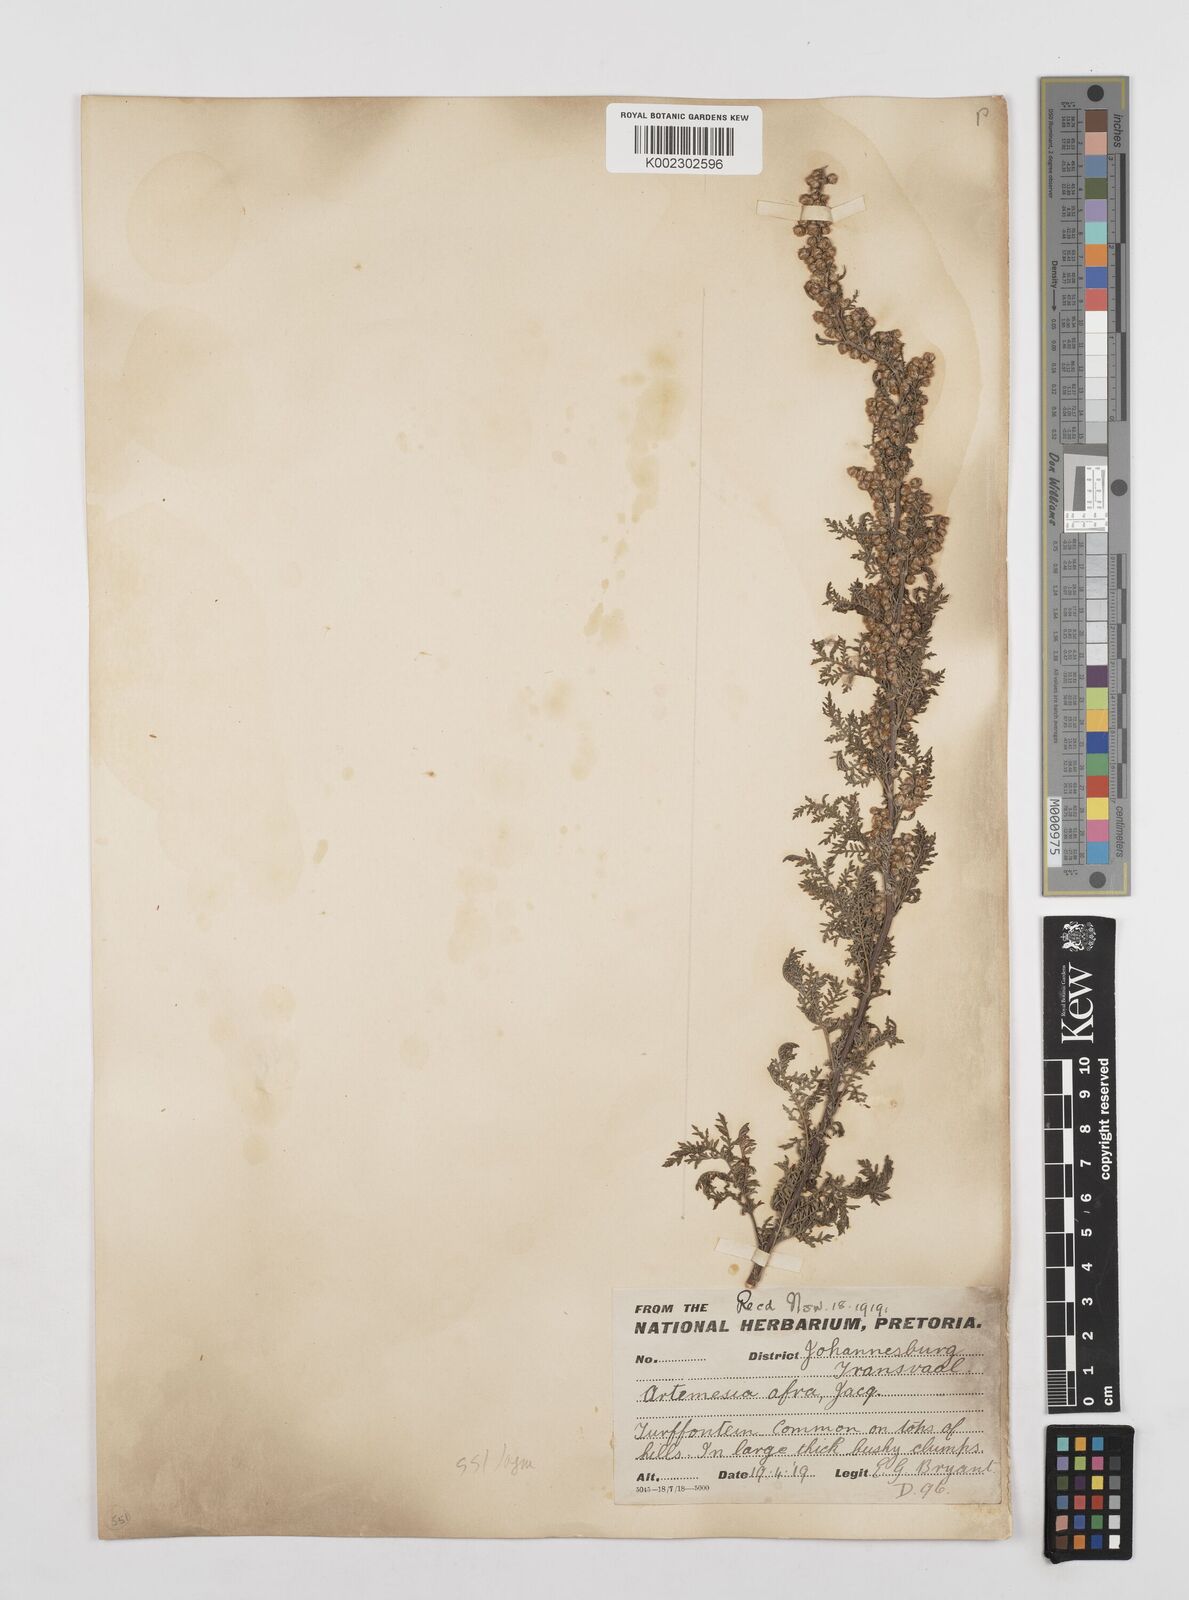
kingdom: Plantae
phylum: Tracheophyta
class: Magnoliopsida
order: Asterales
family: Asteraceae
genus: Artemisia
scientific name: Artemisia afra
